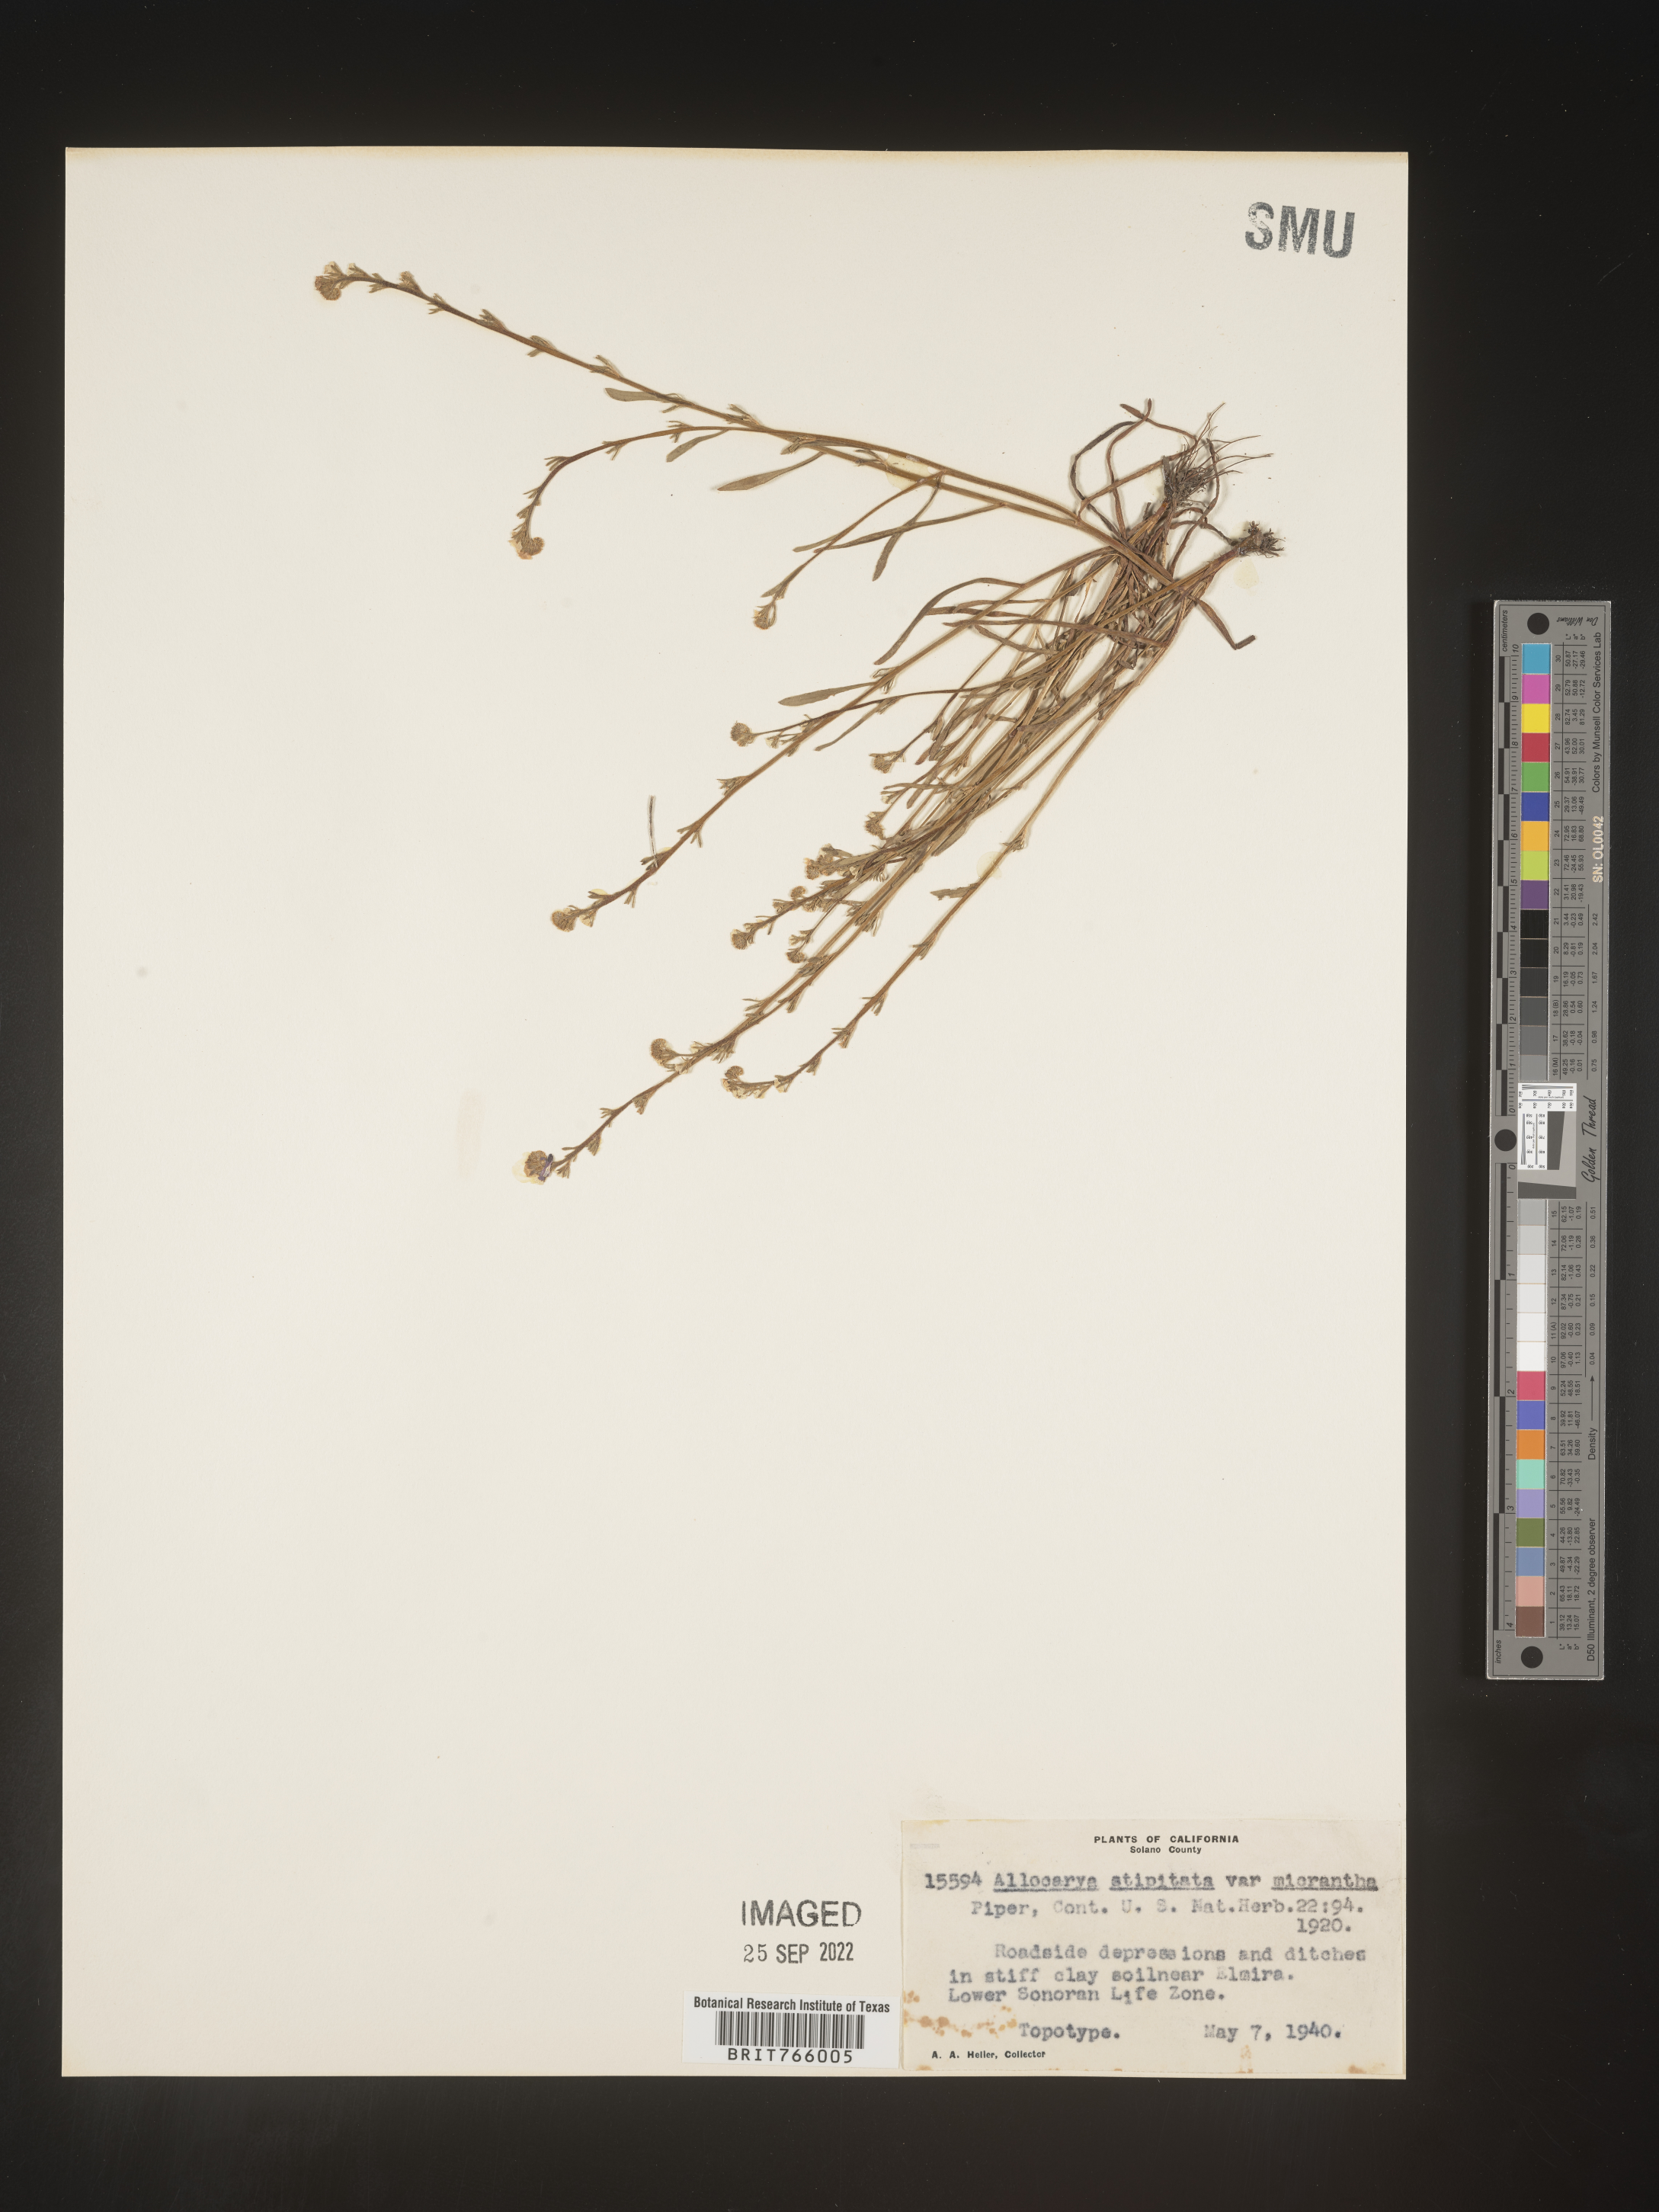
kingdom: Plantae
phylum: Tracheophyta
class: Magnoliopsida
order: Boraginales
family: Boraginaceae
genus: Plagiobothrys
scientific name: Plagiobothrys
